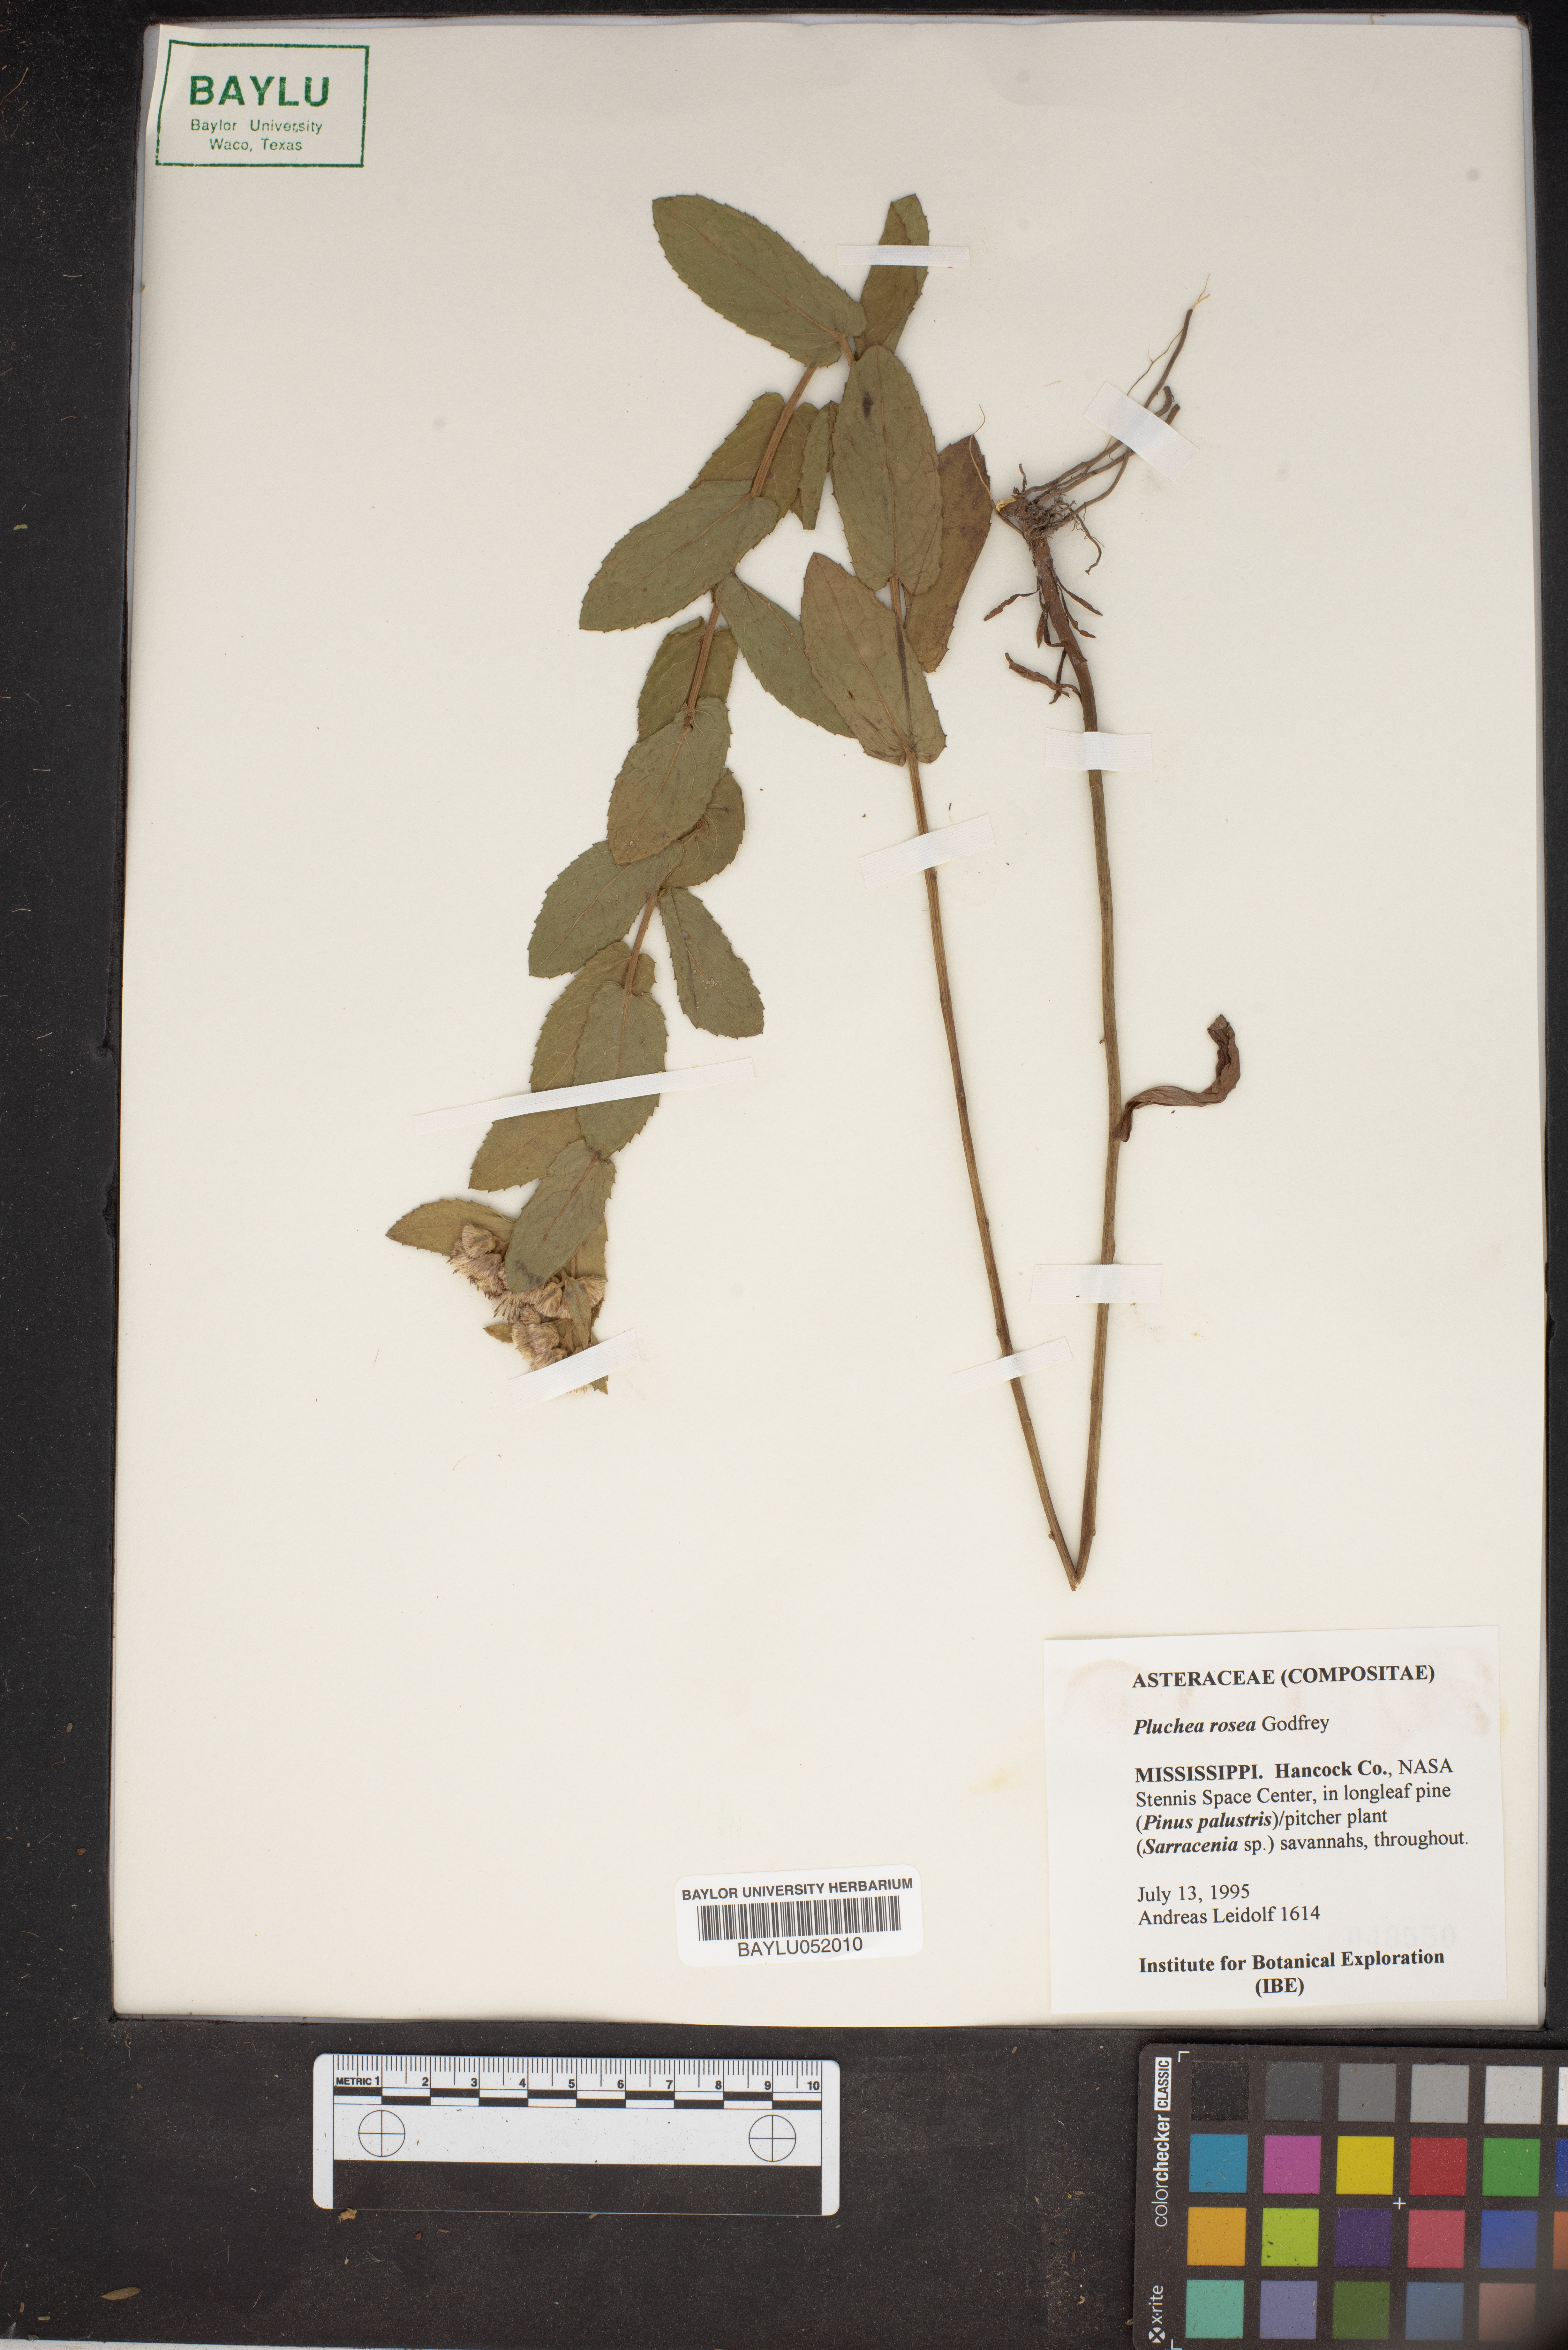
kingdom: Plantae
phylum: Tracheophyta
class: Magnoliopsida
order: Asterales
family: Asteraceae
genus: Pluchea
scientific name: Pluchea baccharis
